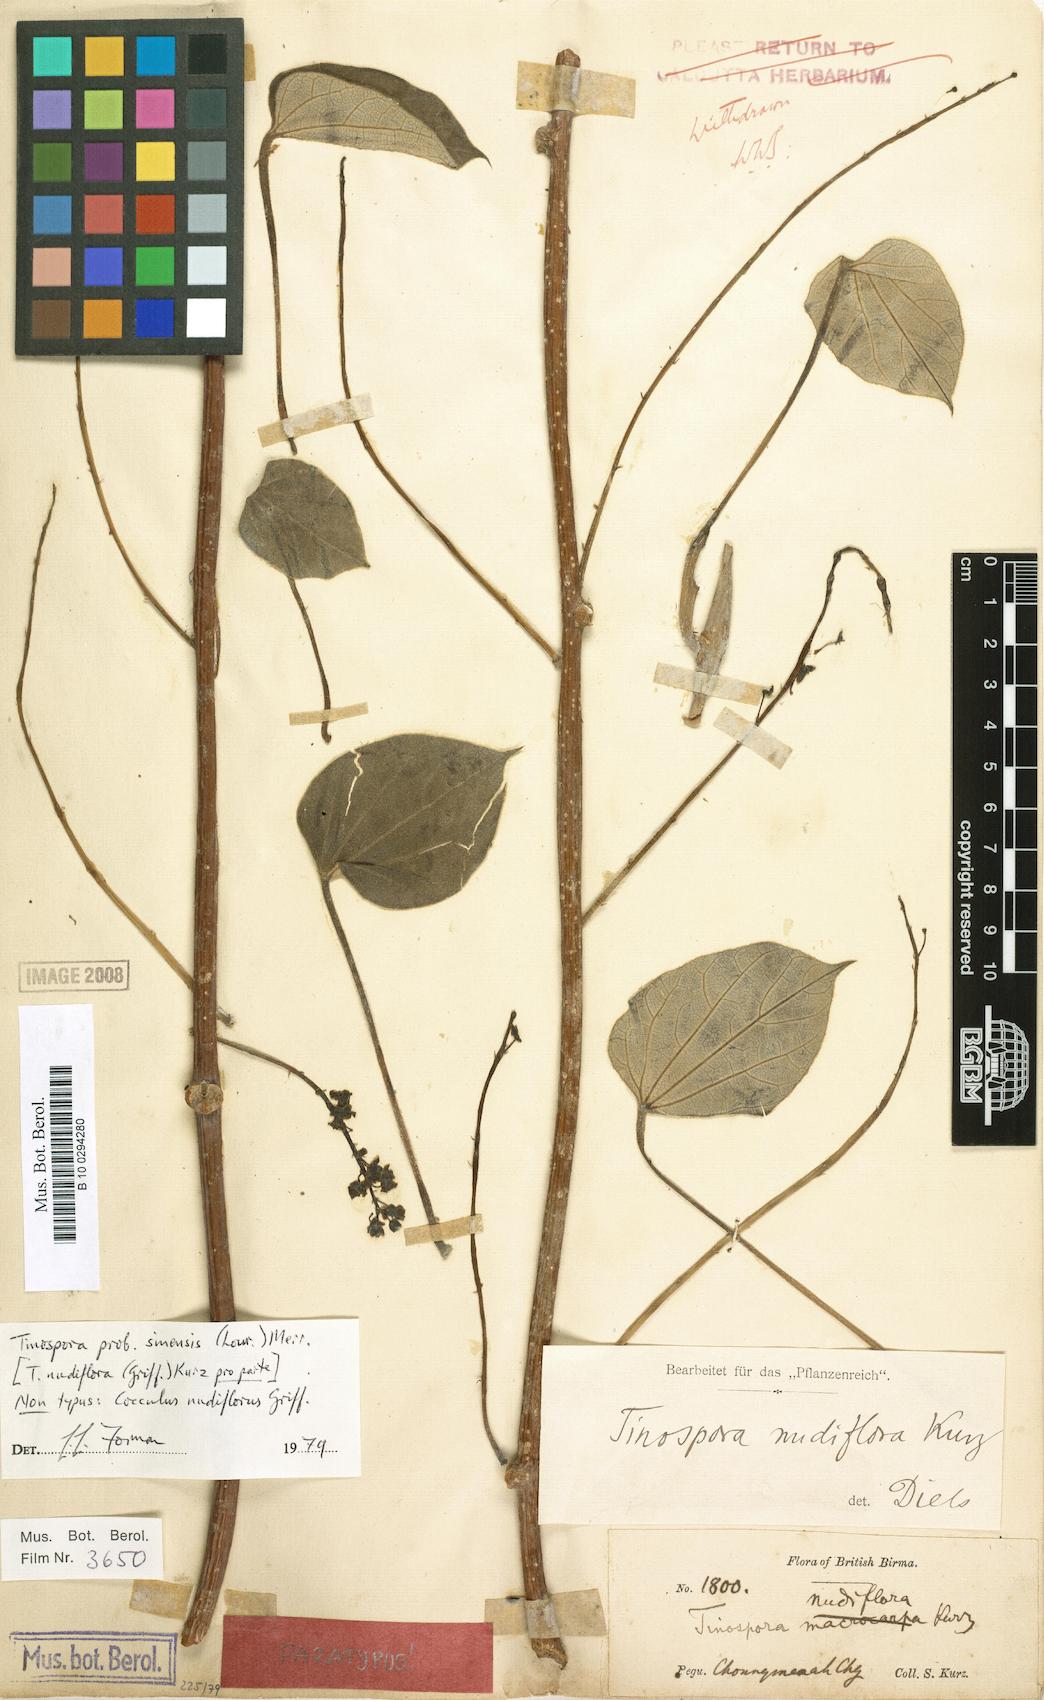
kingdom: Plantae
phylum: Tracheophyta
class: Magnoliopsida
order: Ranunculales
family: Menispermaceae
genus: Tinospora
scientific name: Tinospora nudiflora
